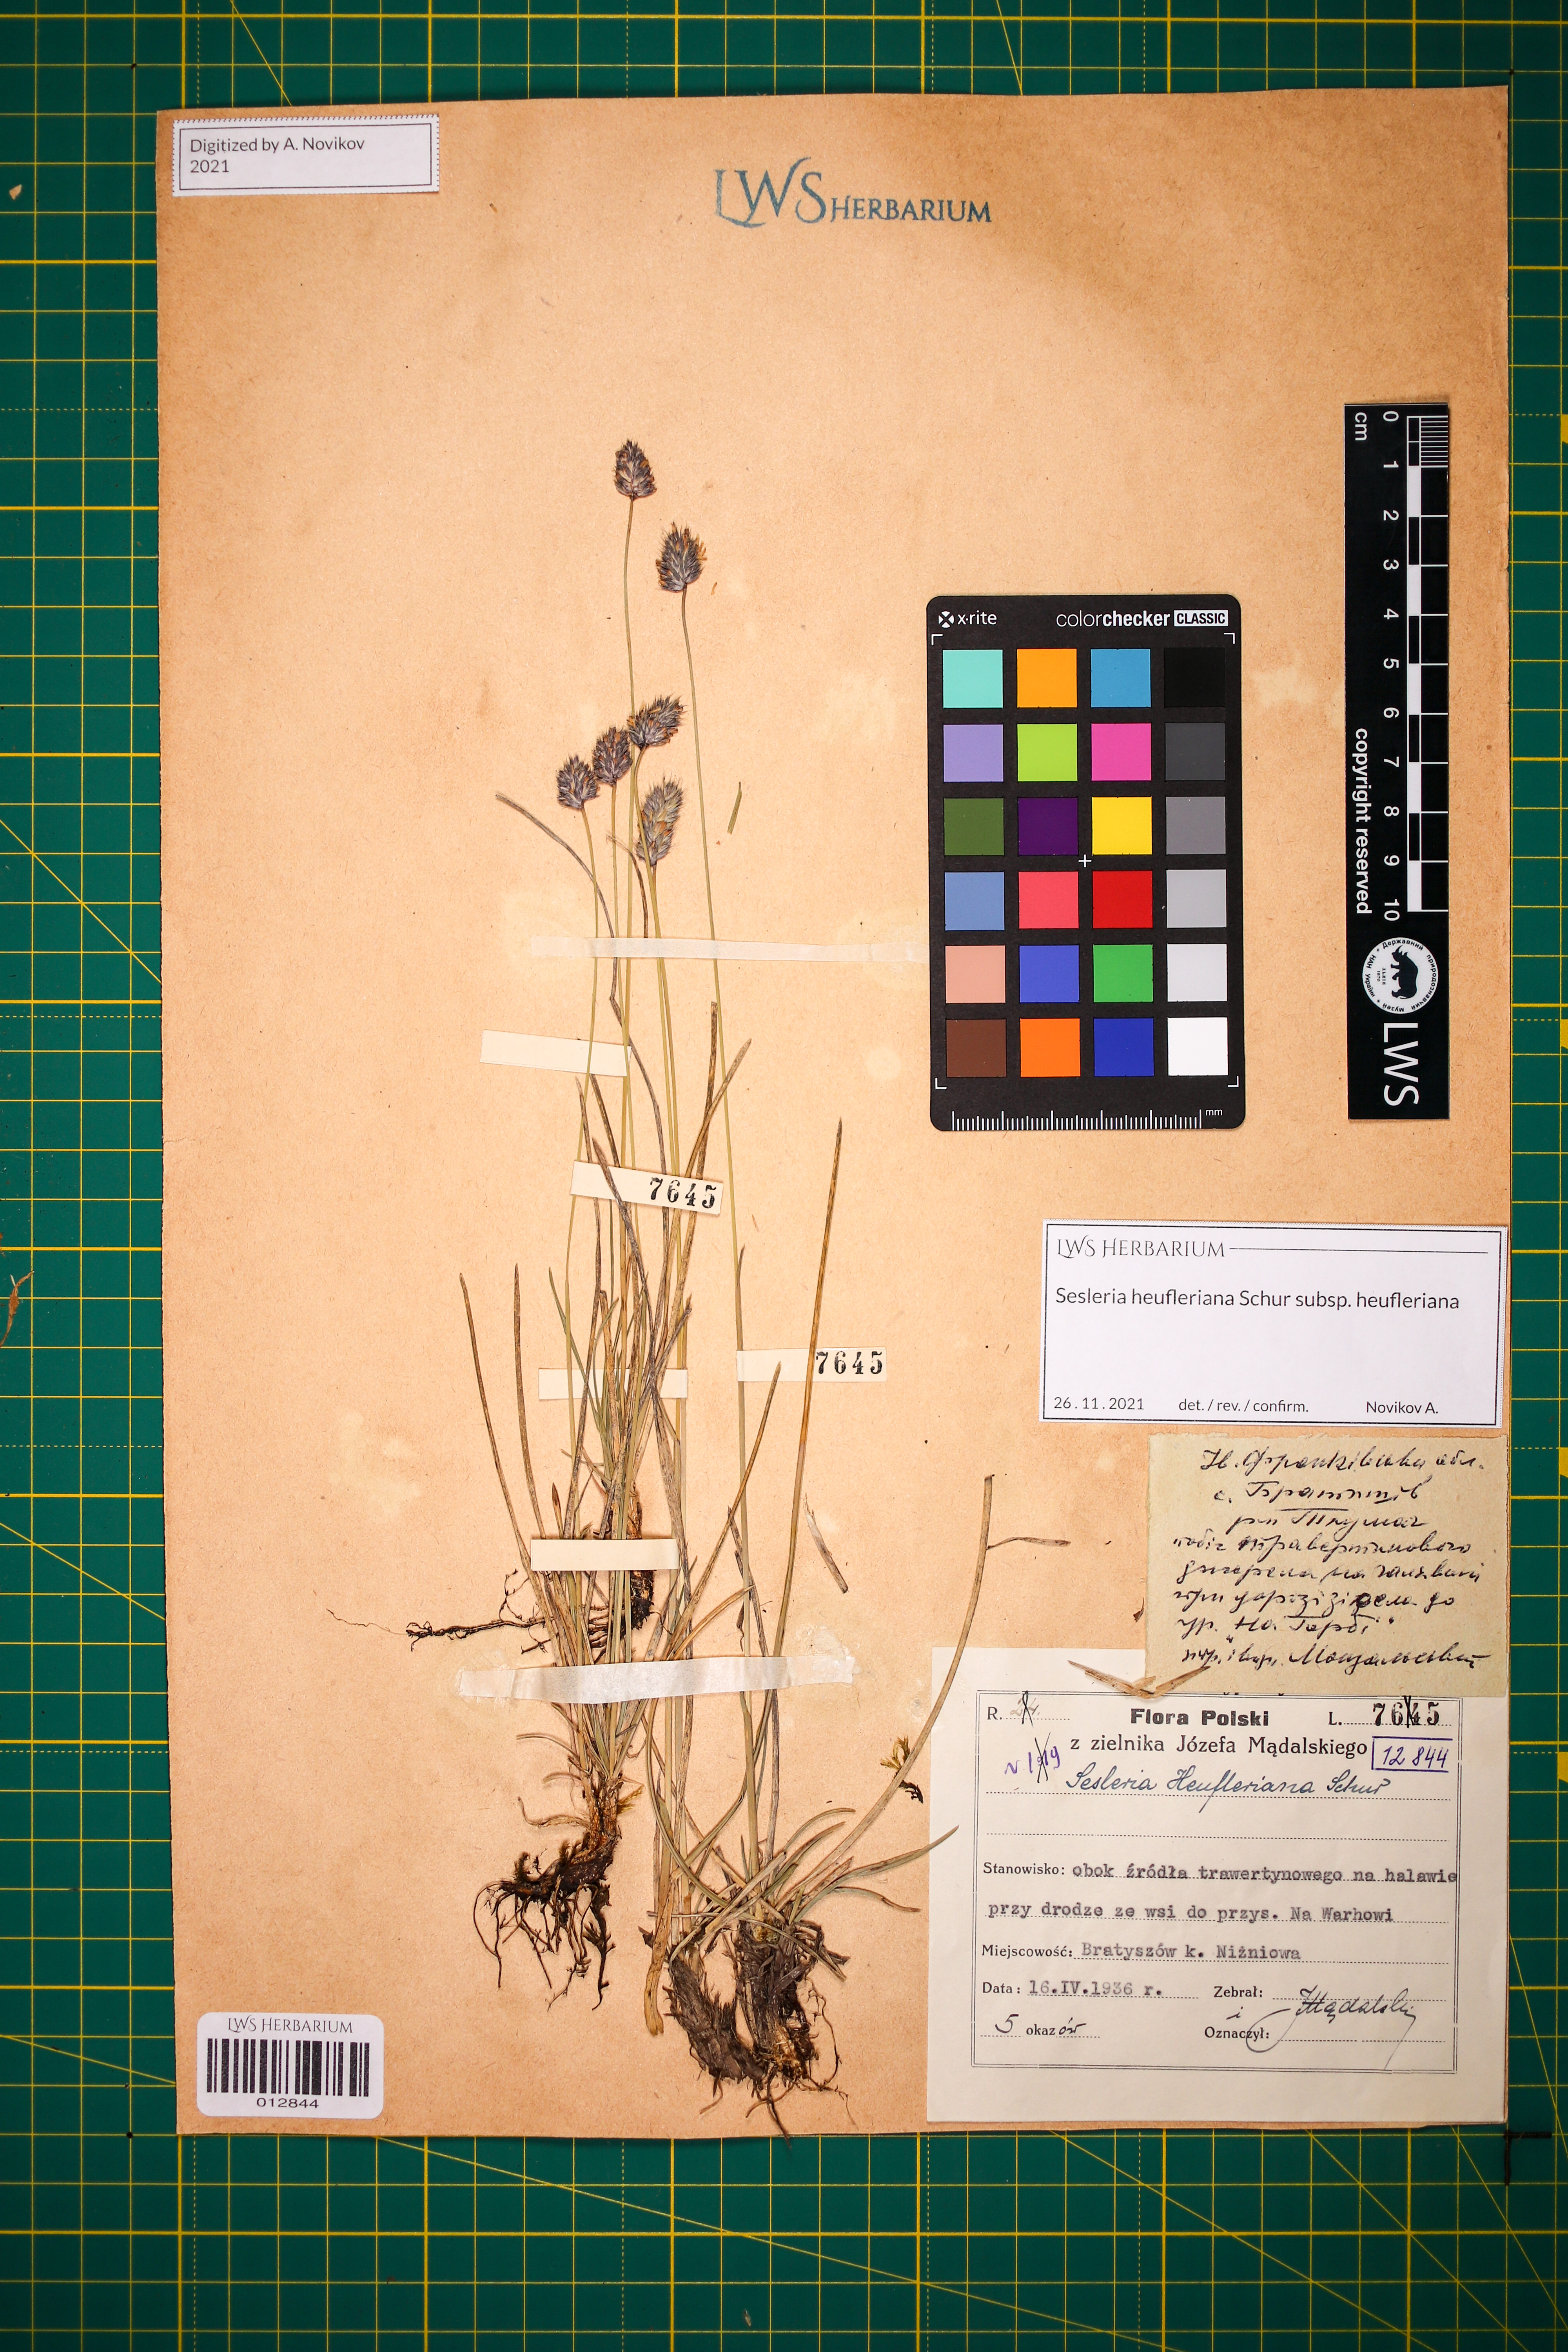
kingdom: Plantae
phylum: Tracheophyta
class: Liliopsida
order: Poales
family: Poaceae
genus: Sesleria
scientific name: Sesleria heufleriana
